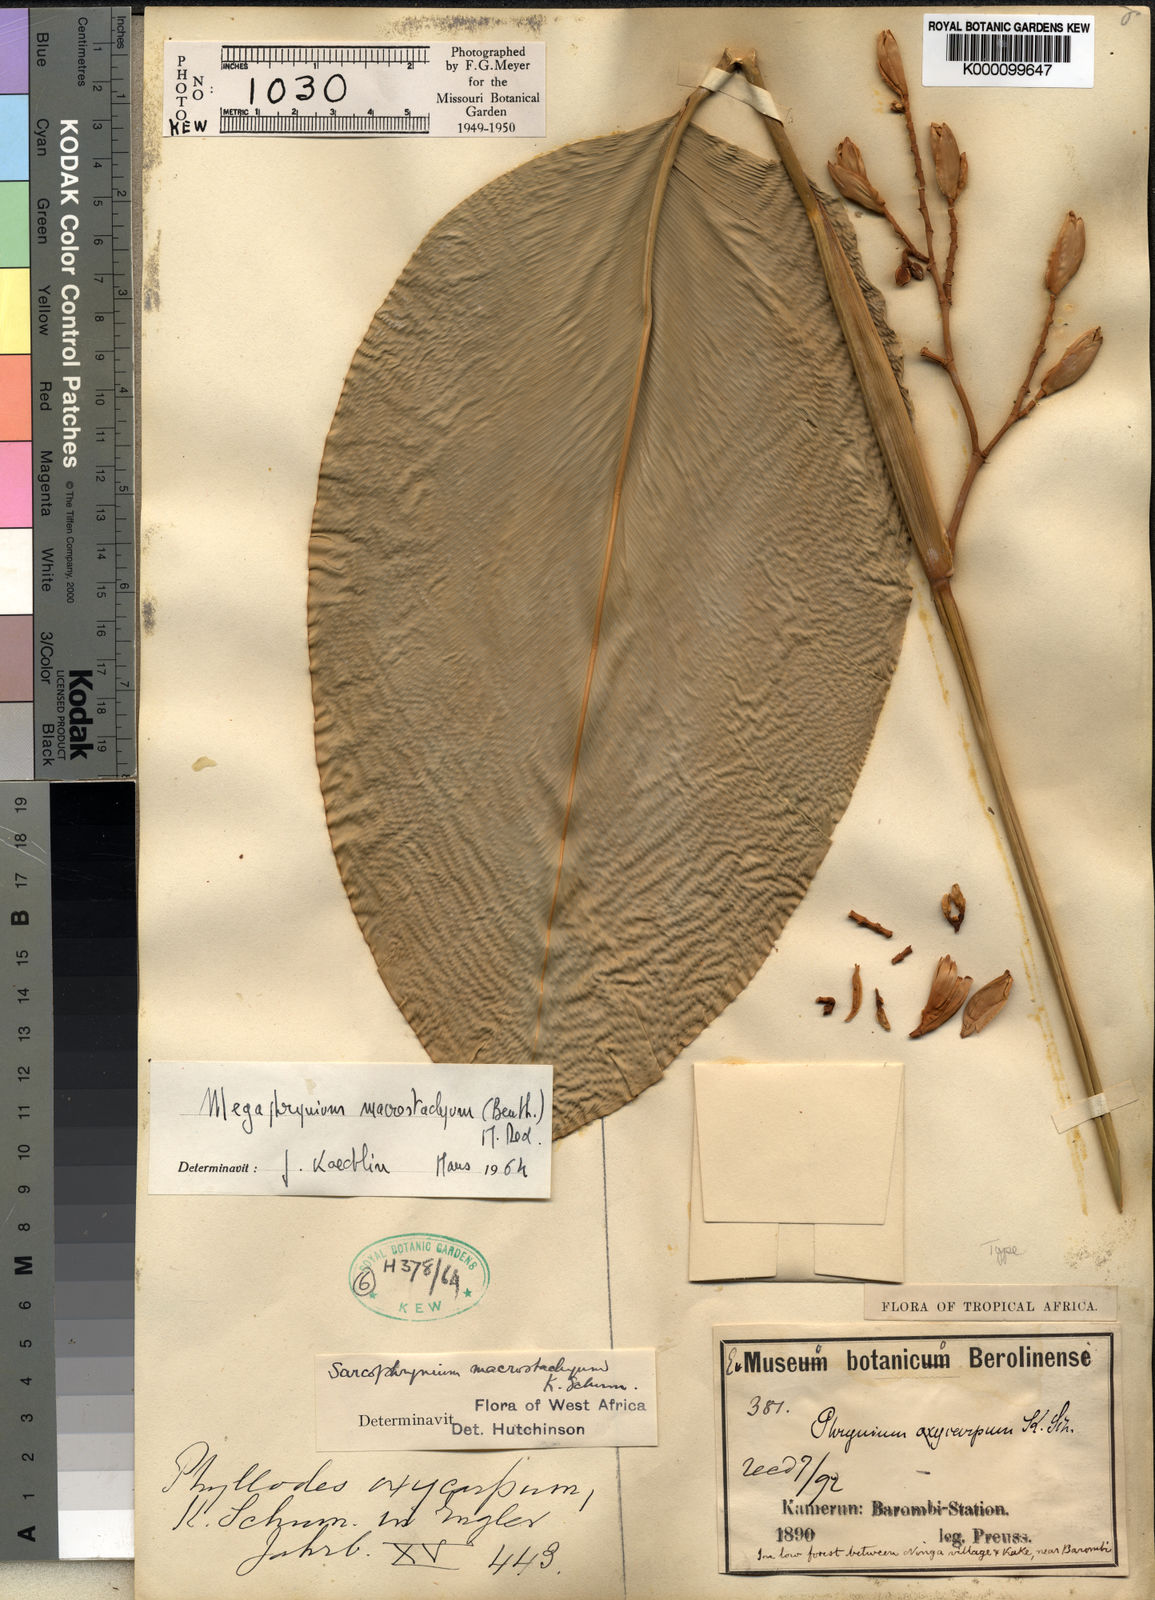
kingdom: Plantae
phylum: Tracheophyta
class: Liliopsida
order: Zingiberales
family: Marantaceae
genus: Megaphrynium
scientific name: Megaphrynium macrostachyum
